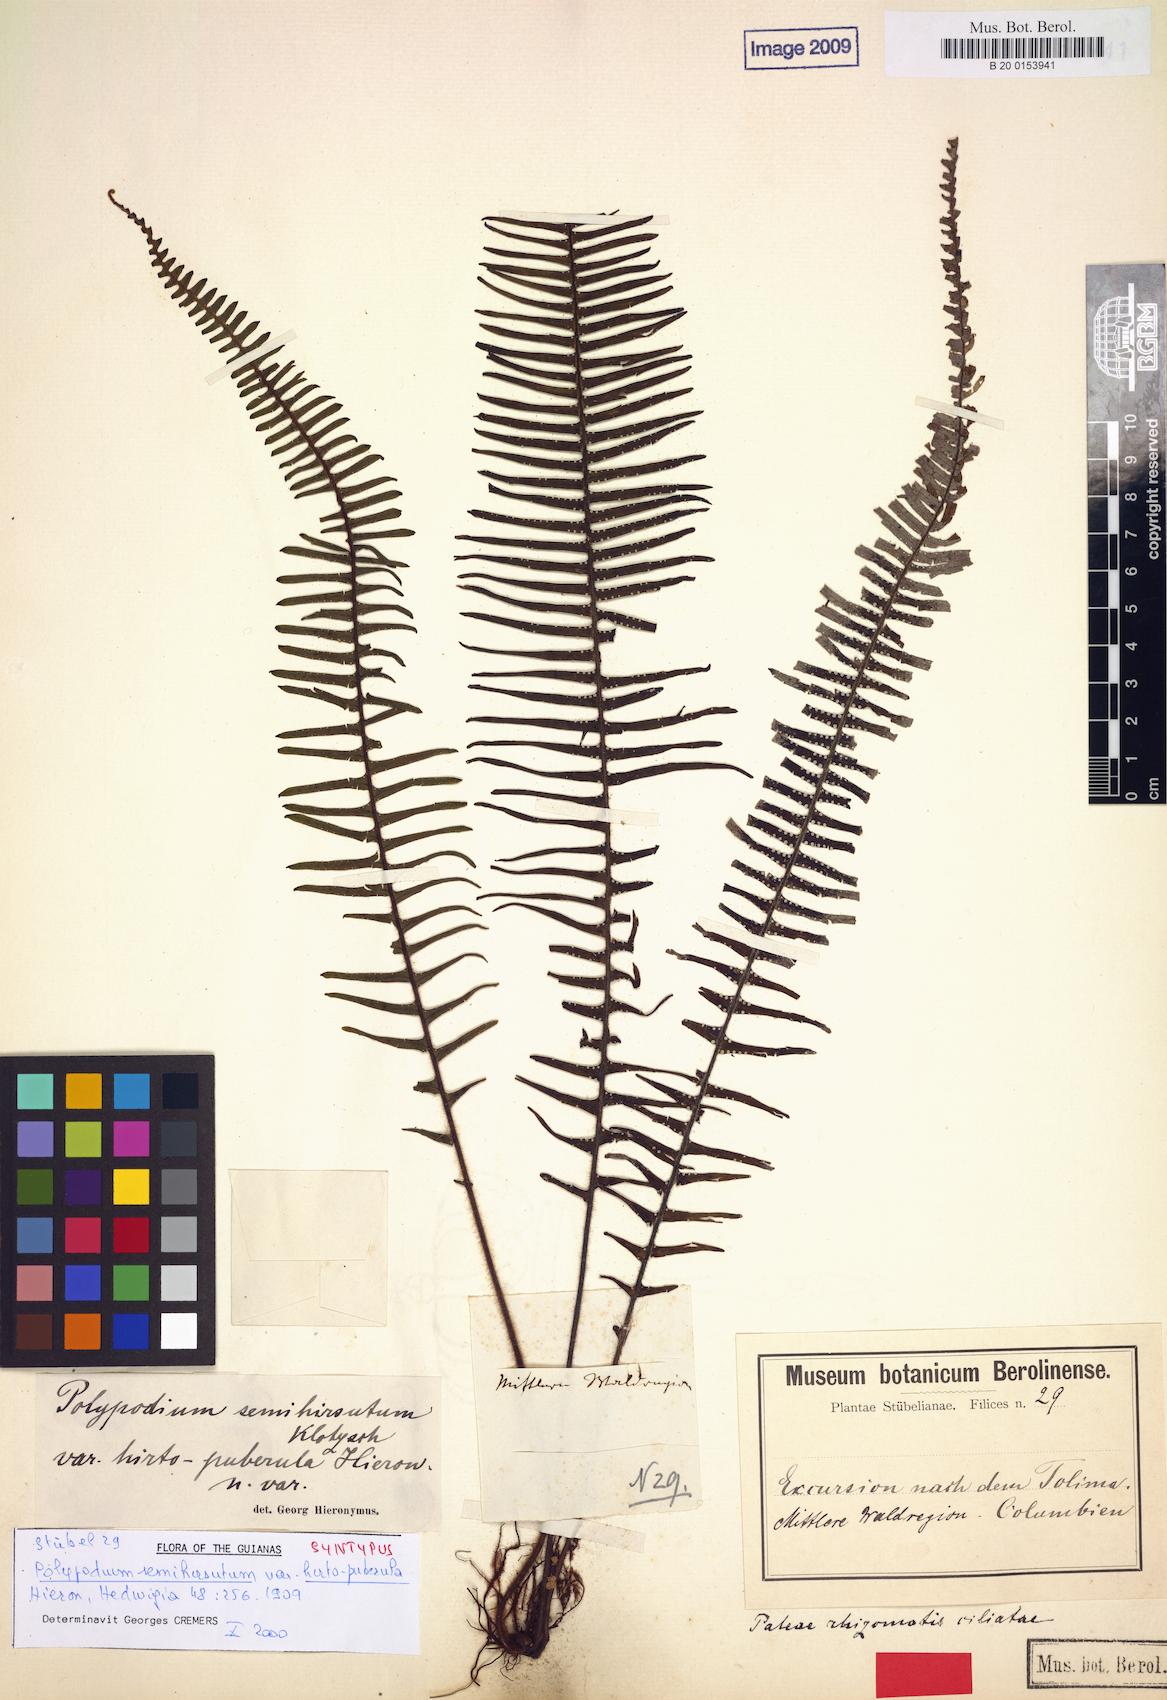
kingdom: Plantae
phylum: Tracheophyta
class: Polypodiopsida
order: Polypodiales
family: Polypodiaceae
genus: Mycopteris
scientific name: Mycopteris alsopteris
